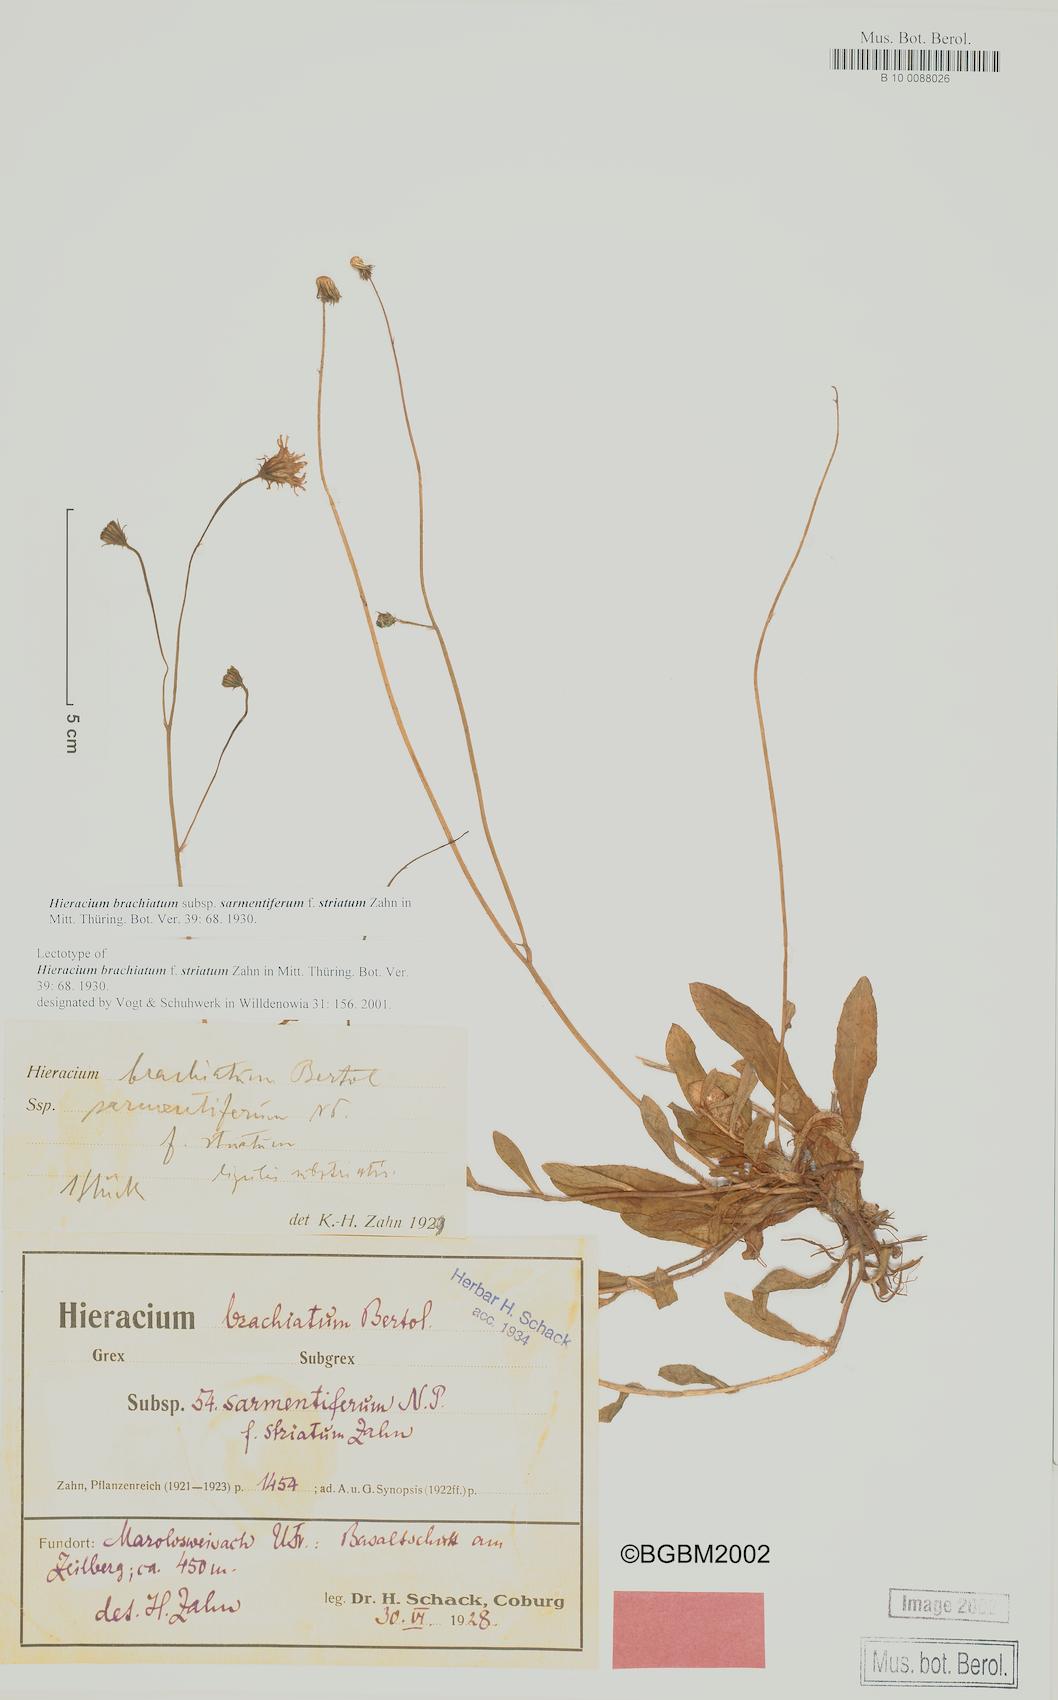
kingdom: Plantae
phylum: Tracheophyta
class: Magnoliopsida
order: Asterales
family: Asteraceae
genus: Pilosella
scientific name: Pilosella acutifolia
